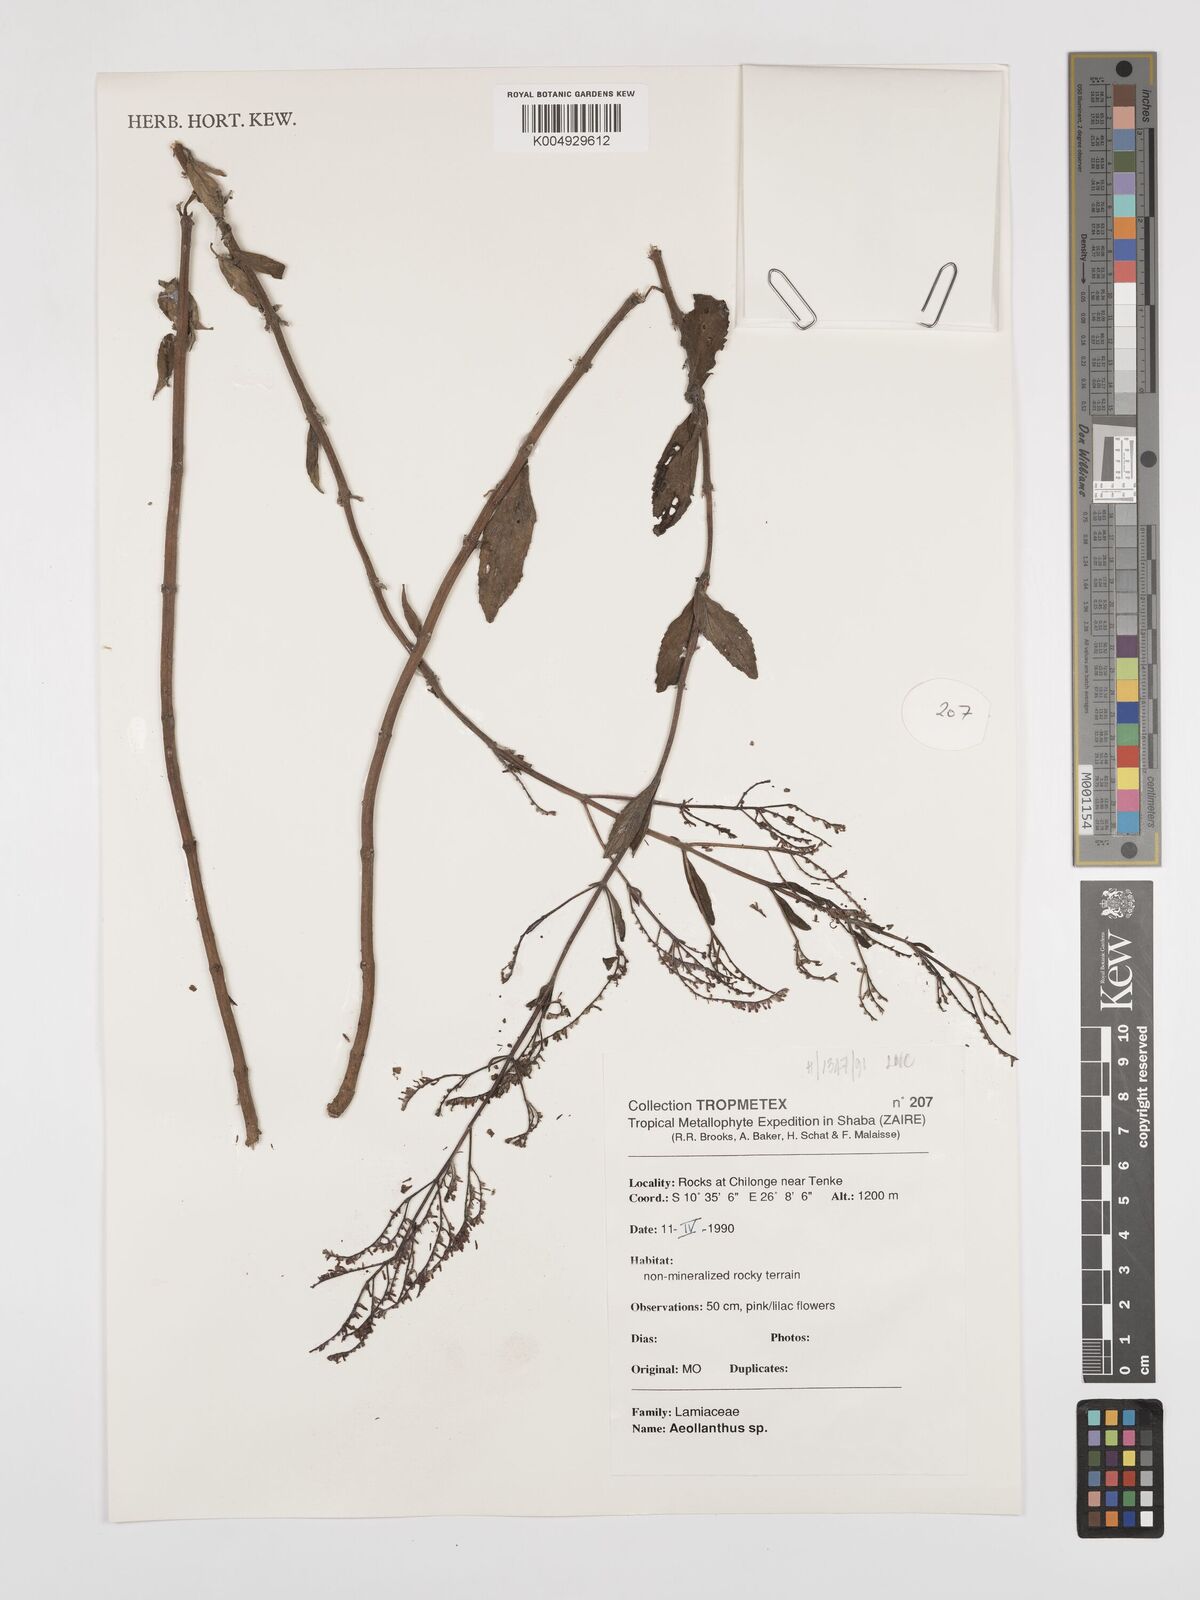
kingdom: Plantae
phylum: Tracheophyta
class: Magnoliopsida
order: Lamiales
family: Lamiaceae
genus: Aeollanthus
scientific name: Aeollanthus
